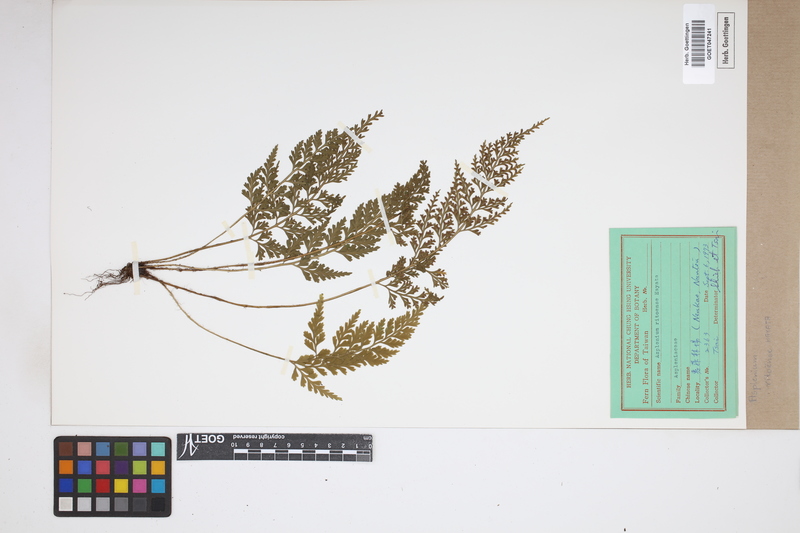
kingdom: Plantae
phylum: Tracheophyta
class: Polypodiopsida
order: Polypodiales
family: Aspleniaceae
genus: Asplenium
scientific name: Asplenium ritoense
